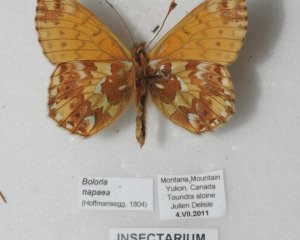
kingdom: Animalia
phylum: Arthropoda
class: Insecta
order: Lepidoptera
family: Nymphalidae
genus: Boloria
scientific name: Boloria alaskensis
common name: Alaskan Fritillary
